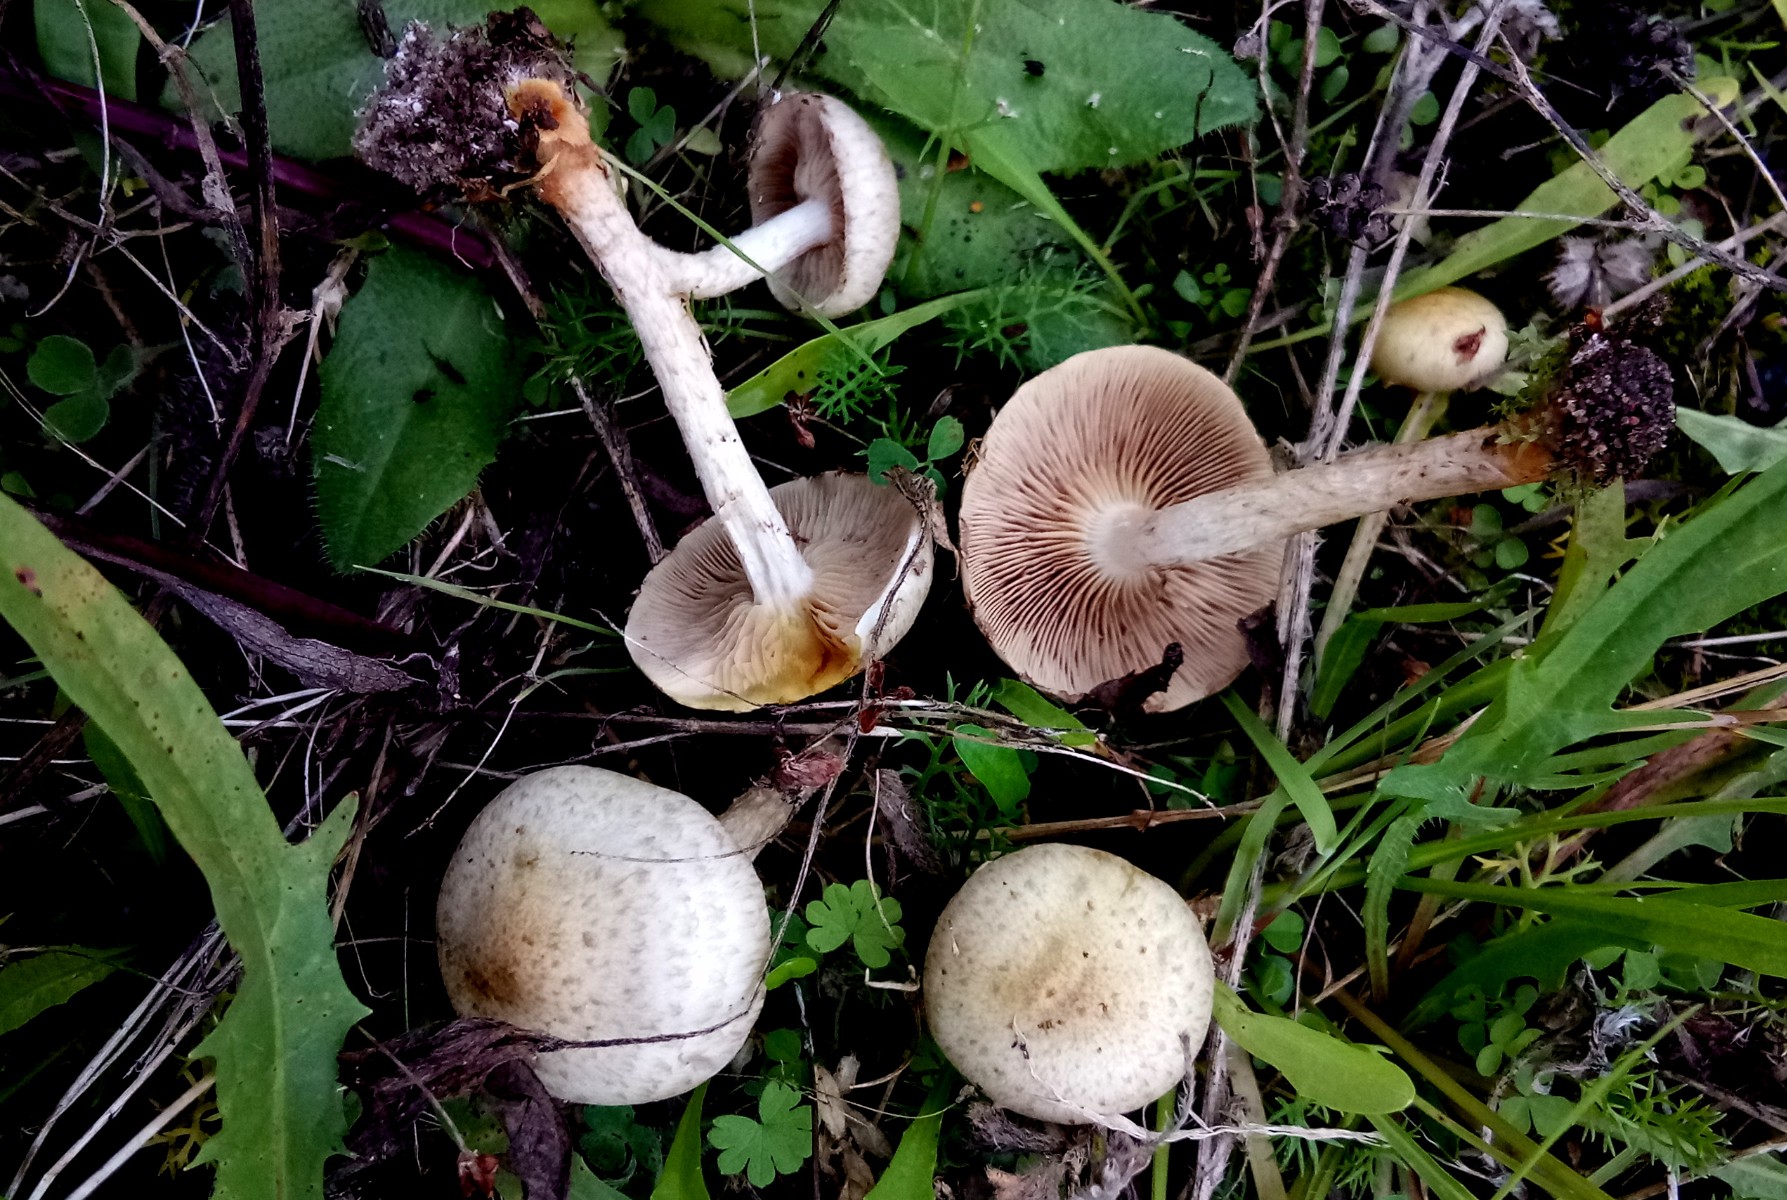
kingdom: Fungi
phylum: Basidiomycota
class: Agaricomycetes
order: Agaricales
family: Strophariaceae
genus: Pholiota
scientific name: Pholiota gummosa
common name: grøngul skælhat
